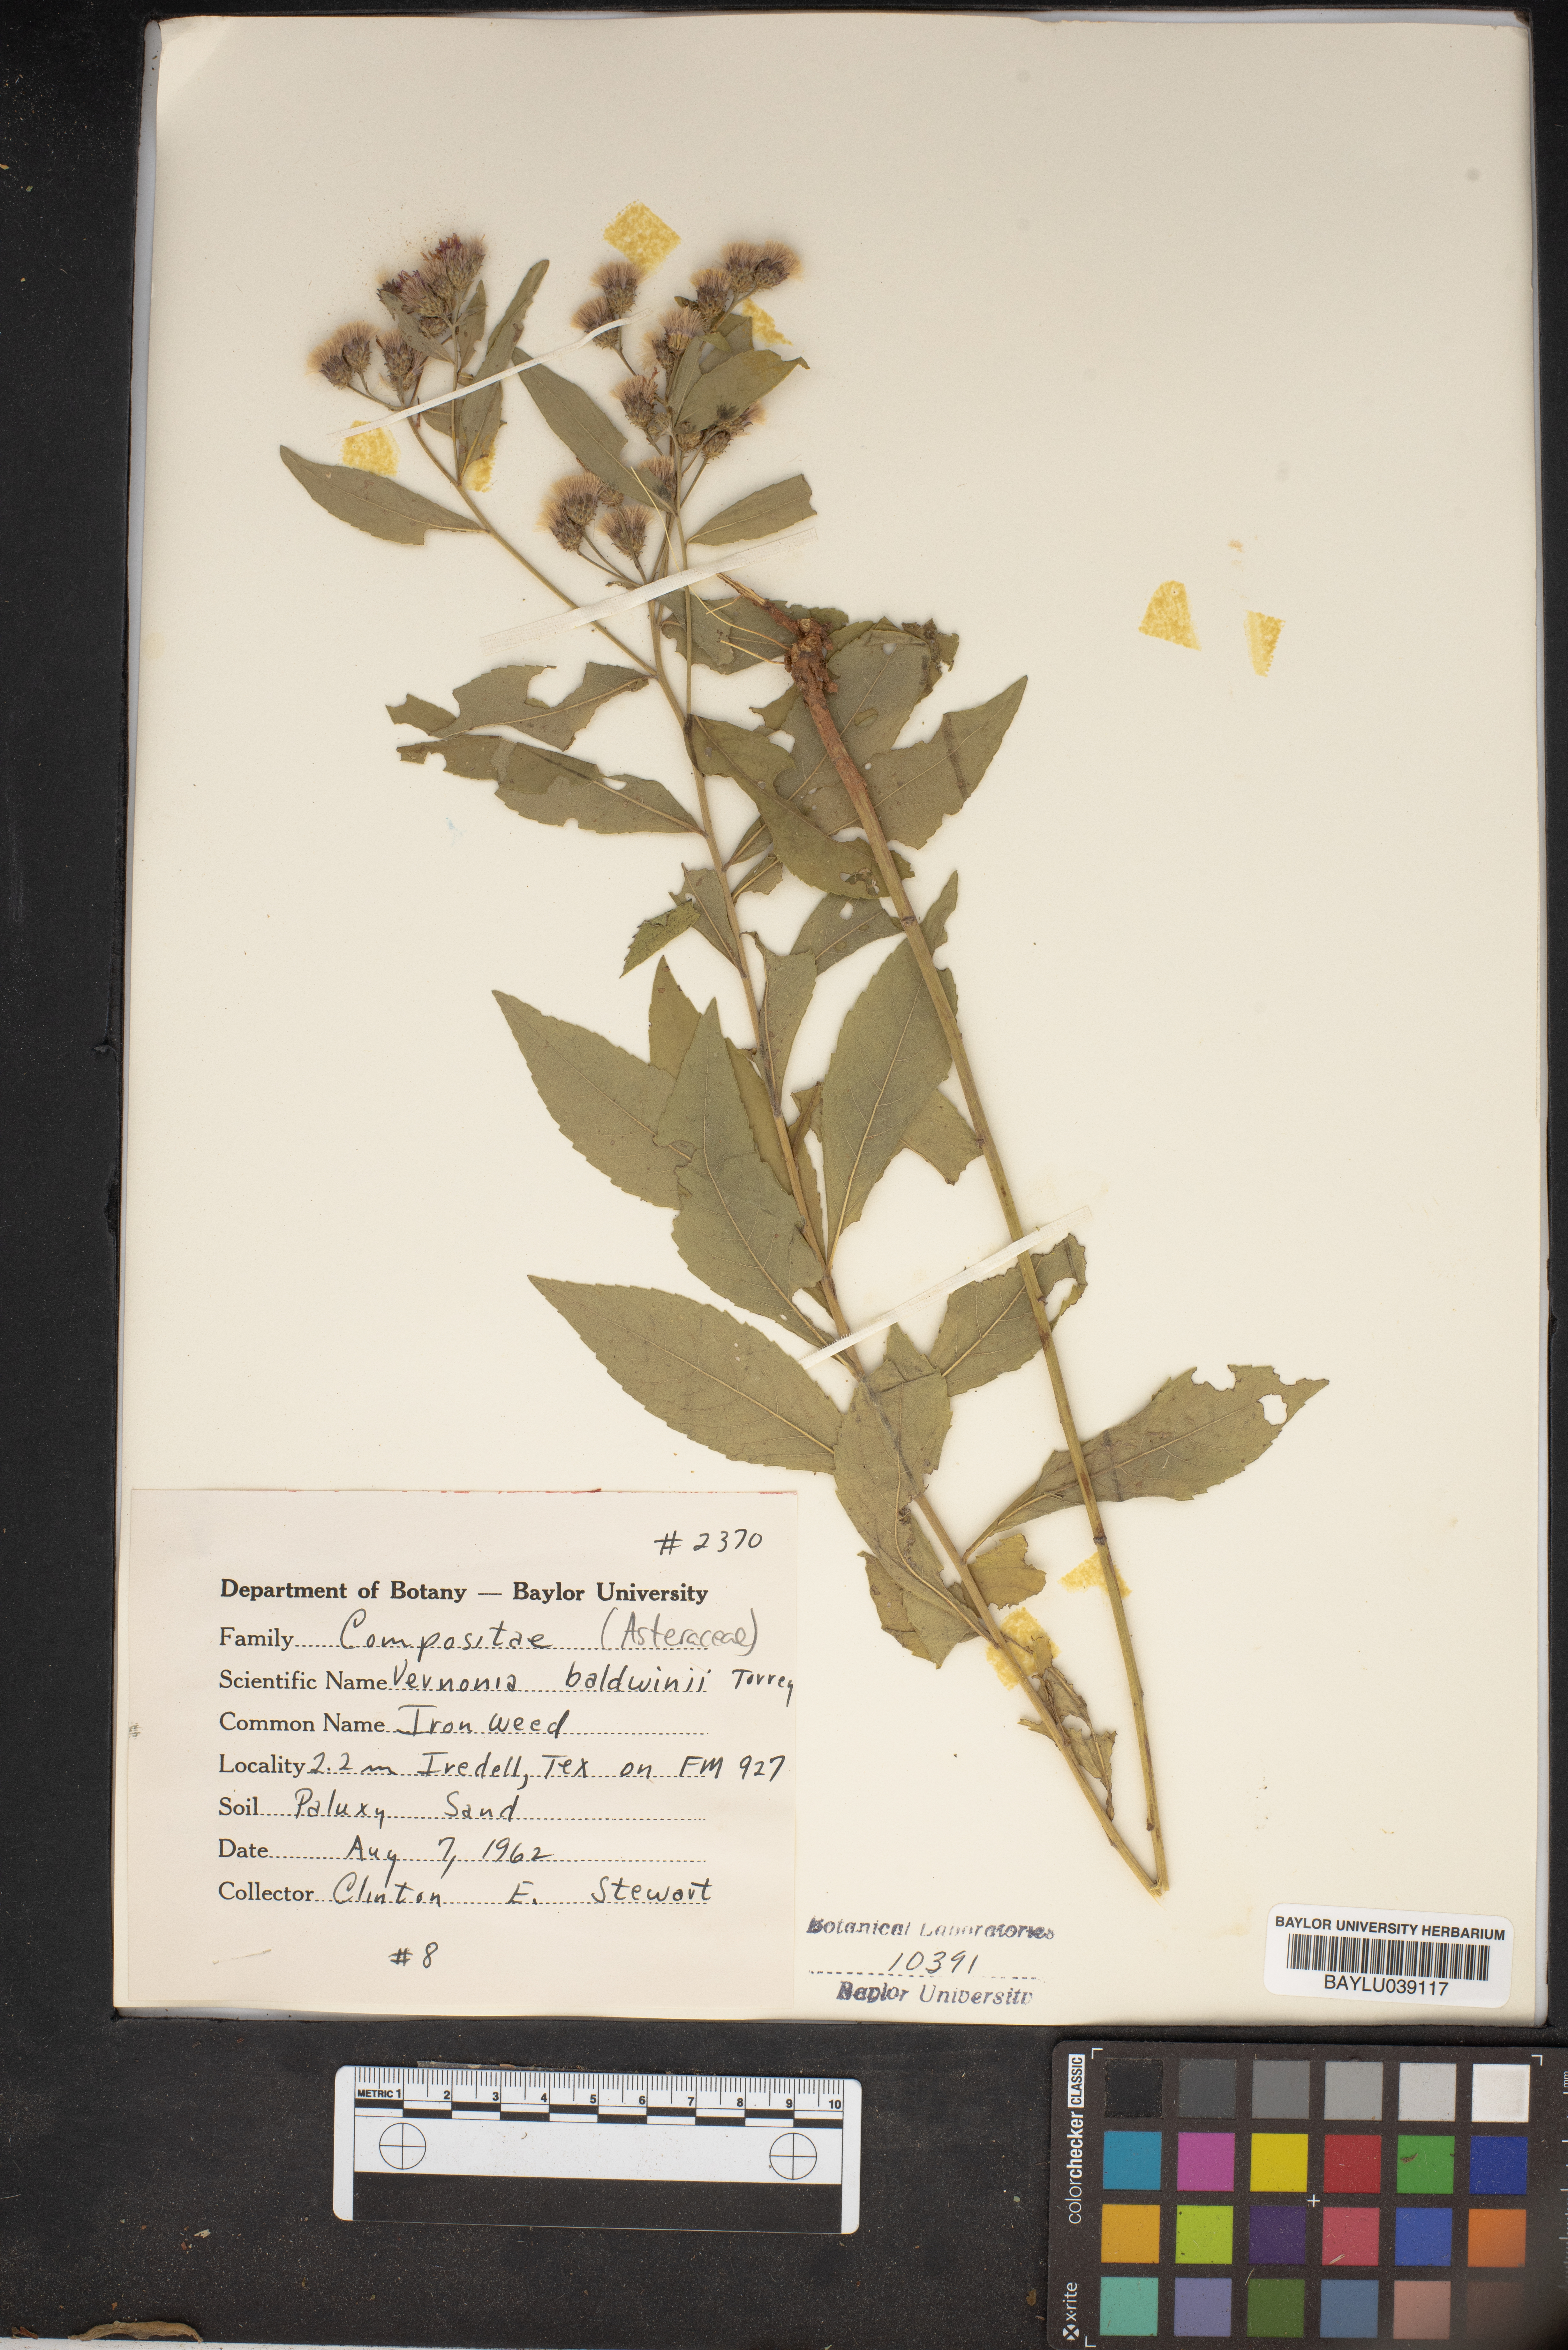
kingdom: Plantae
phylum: Tracheophyta
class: Magnoliopsida
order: Asterales
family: Asteraceae
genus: Vernonia
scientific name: Vernonia baldwinii
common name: Western ironweed
